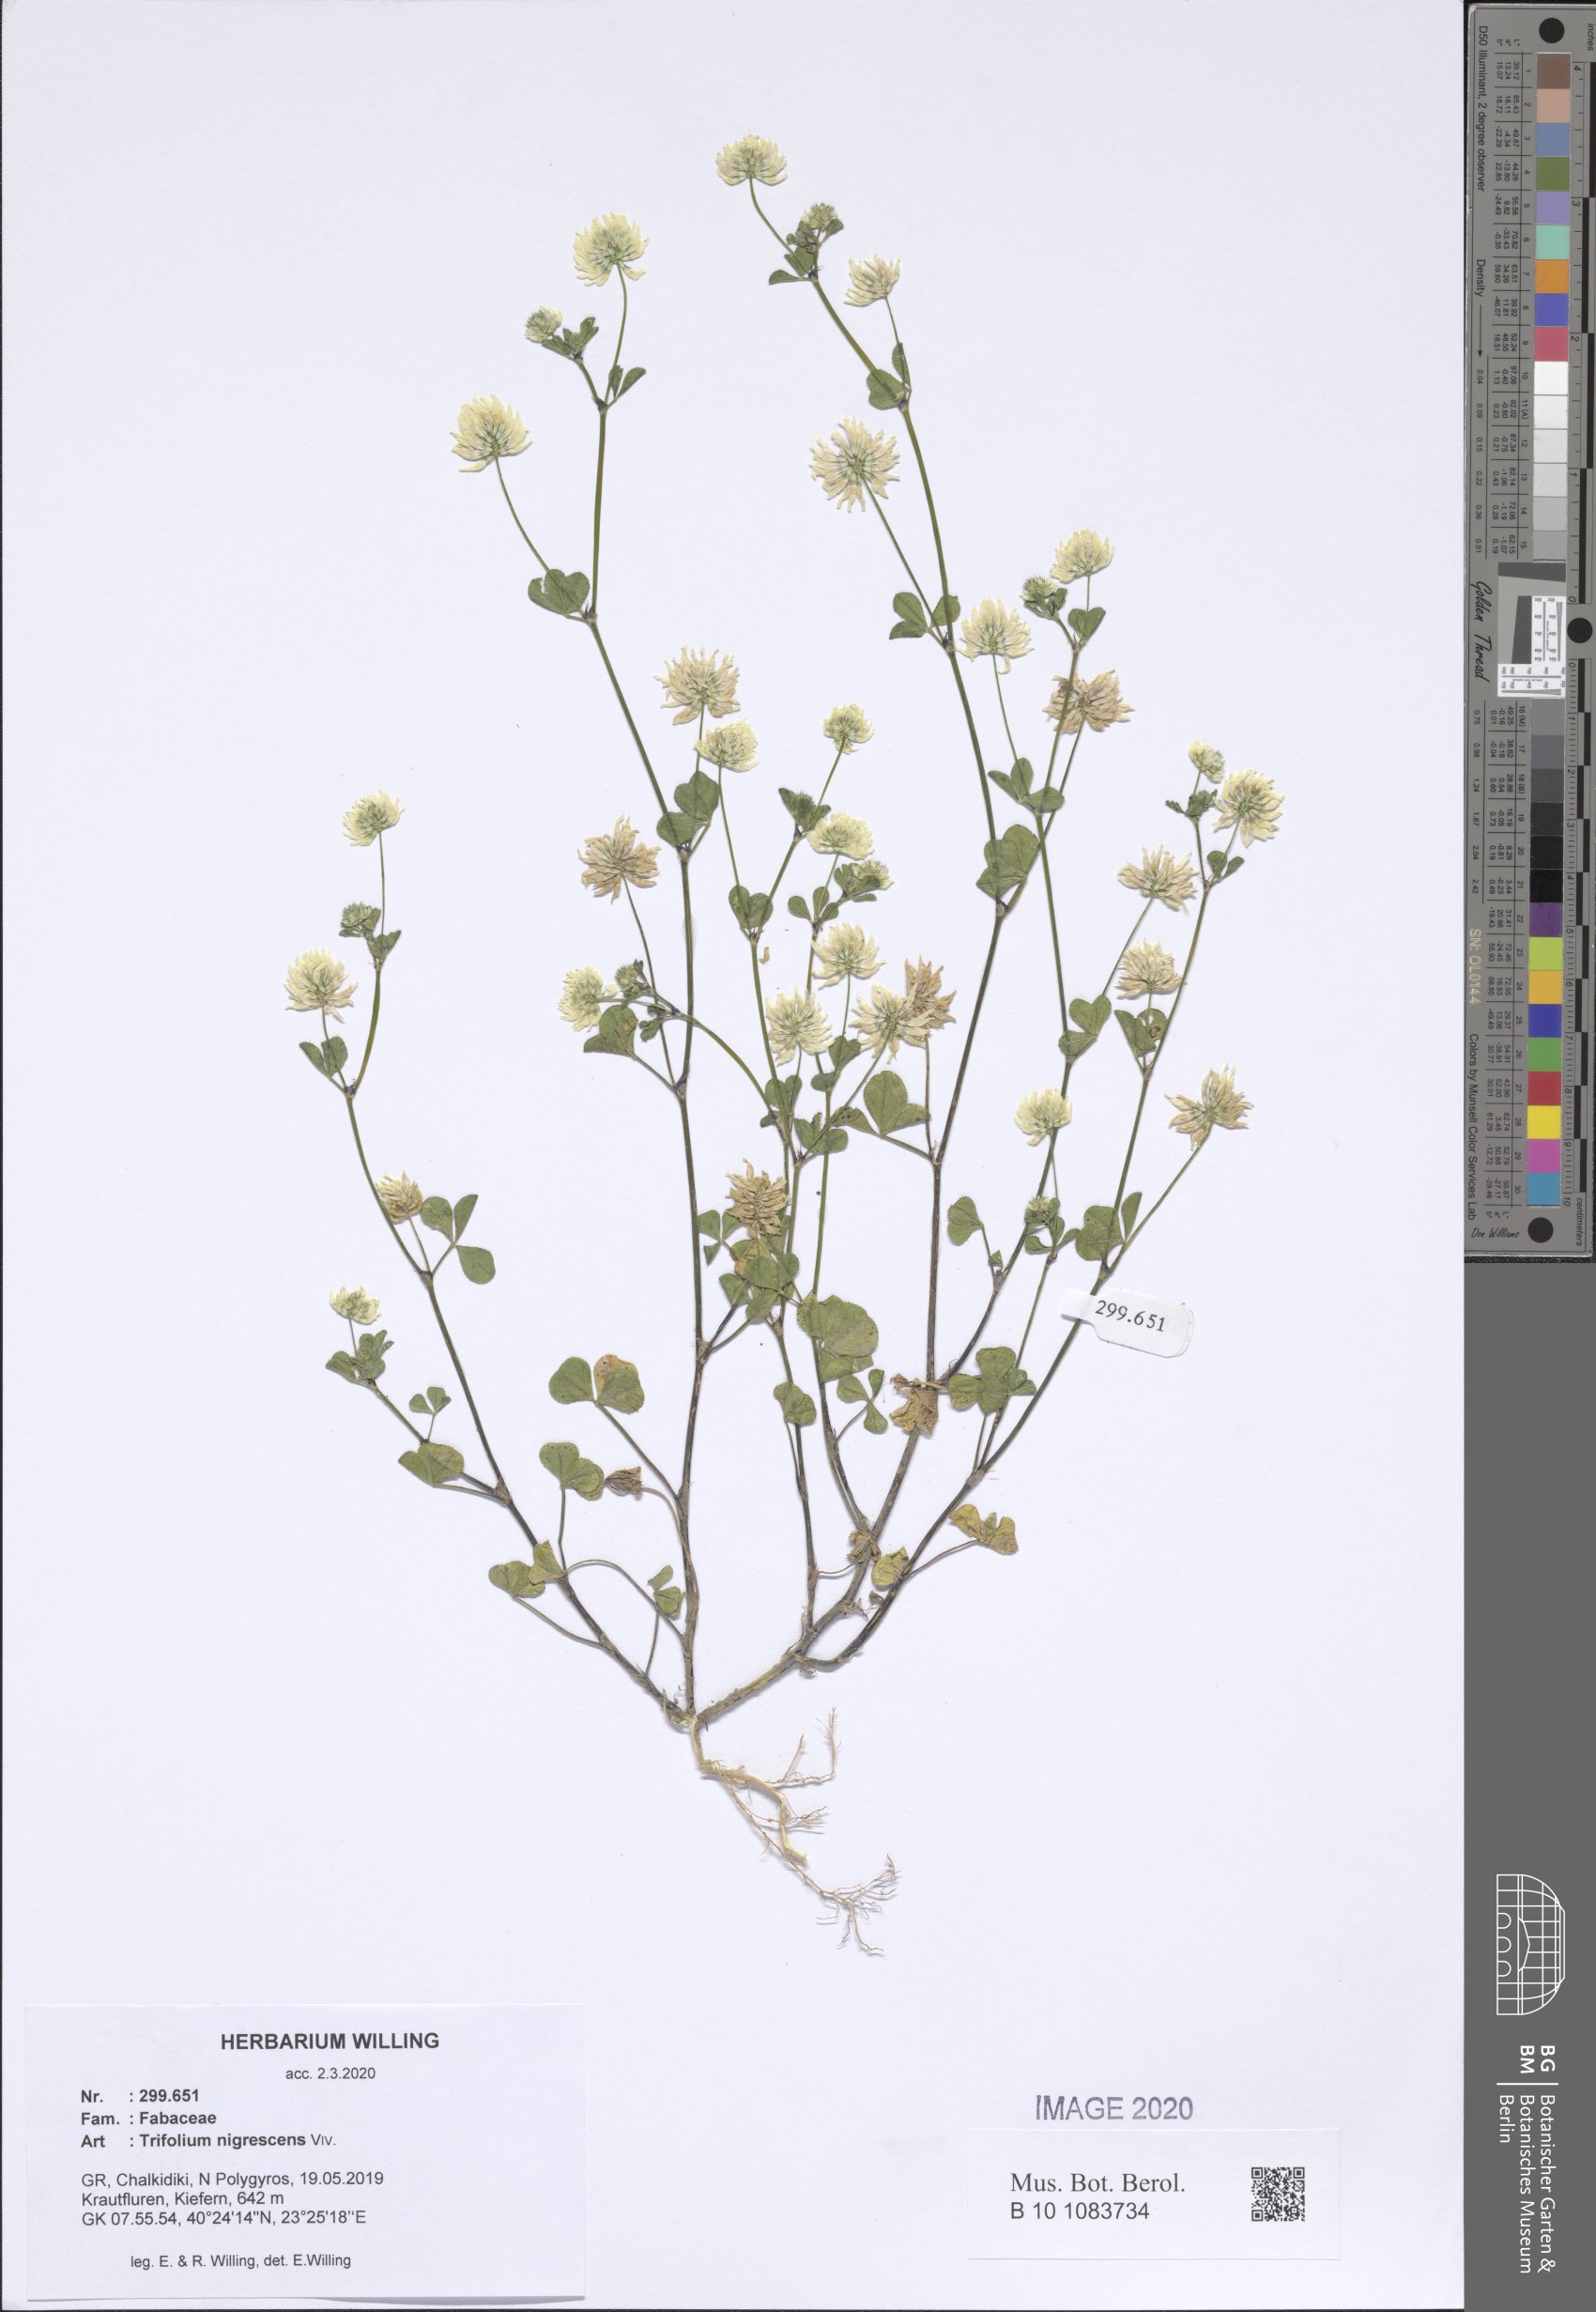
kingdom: Plantae
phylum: Tracheophyta
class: Magnoliopsida
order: Fabales
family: Fabaceae
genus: Trifolium
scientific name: Trifolium nigrescens
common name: Small white clover
